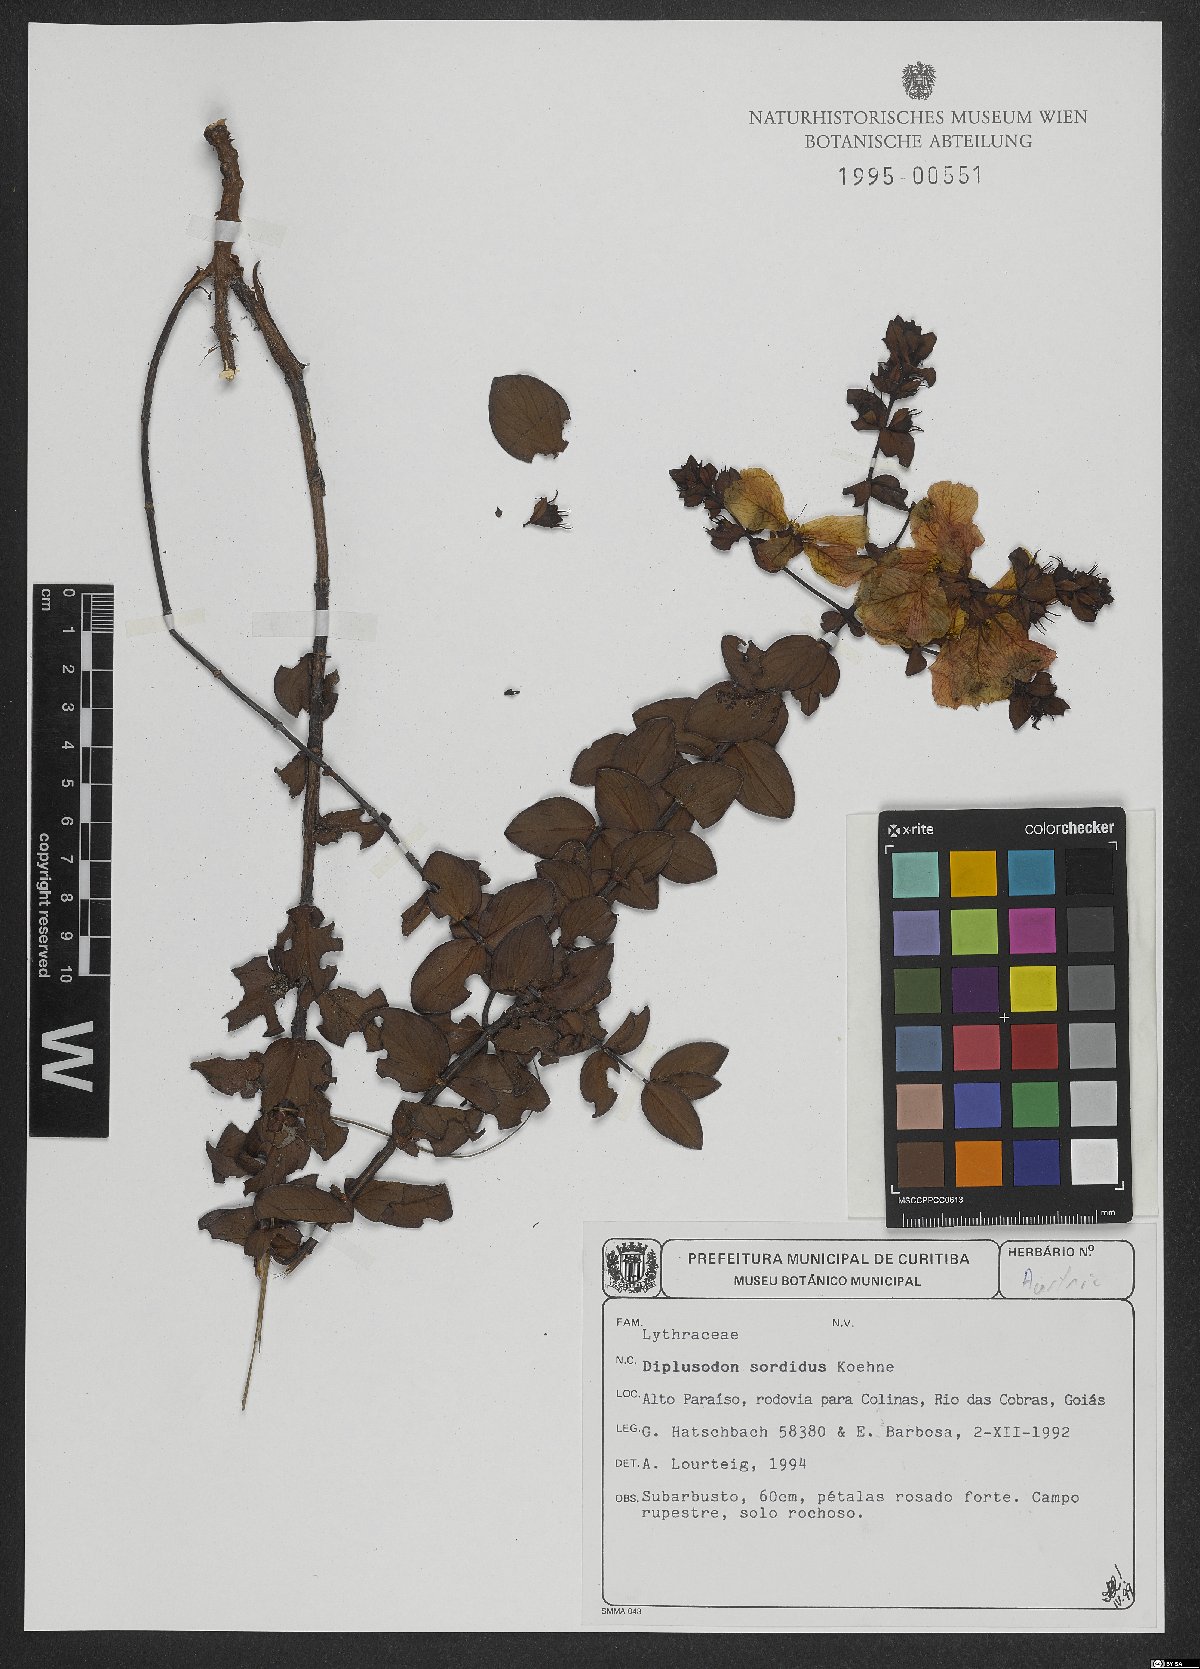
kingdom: Plantae
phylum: Tracheophyta
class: Magnoliopsida
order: Myrtales
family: Lythraceae
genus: Diplusodon
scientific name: Diplusodon sordidus
